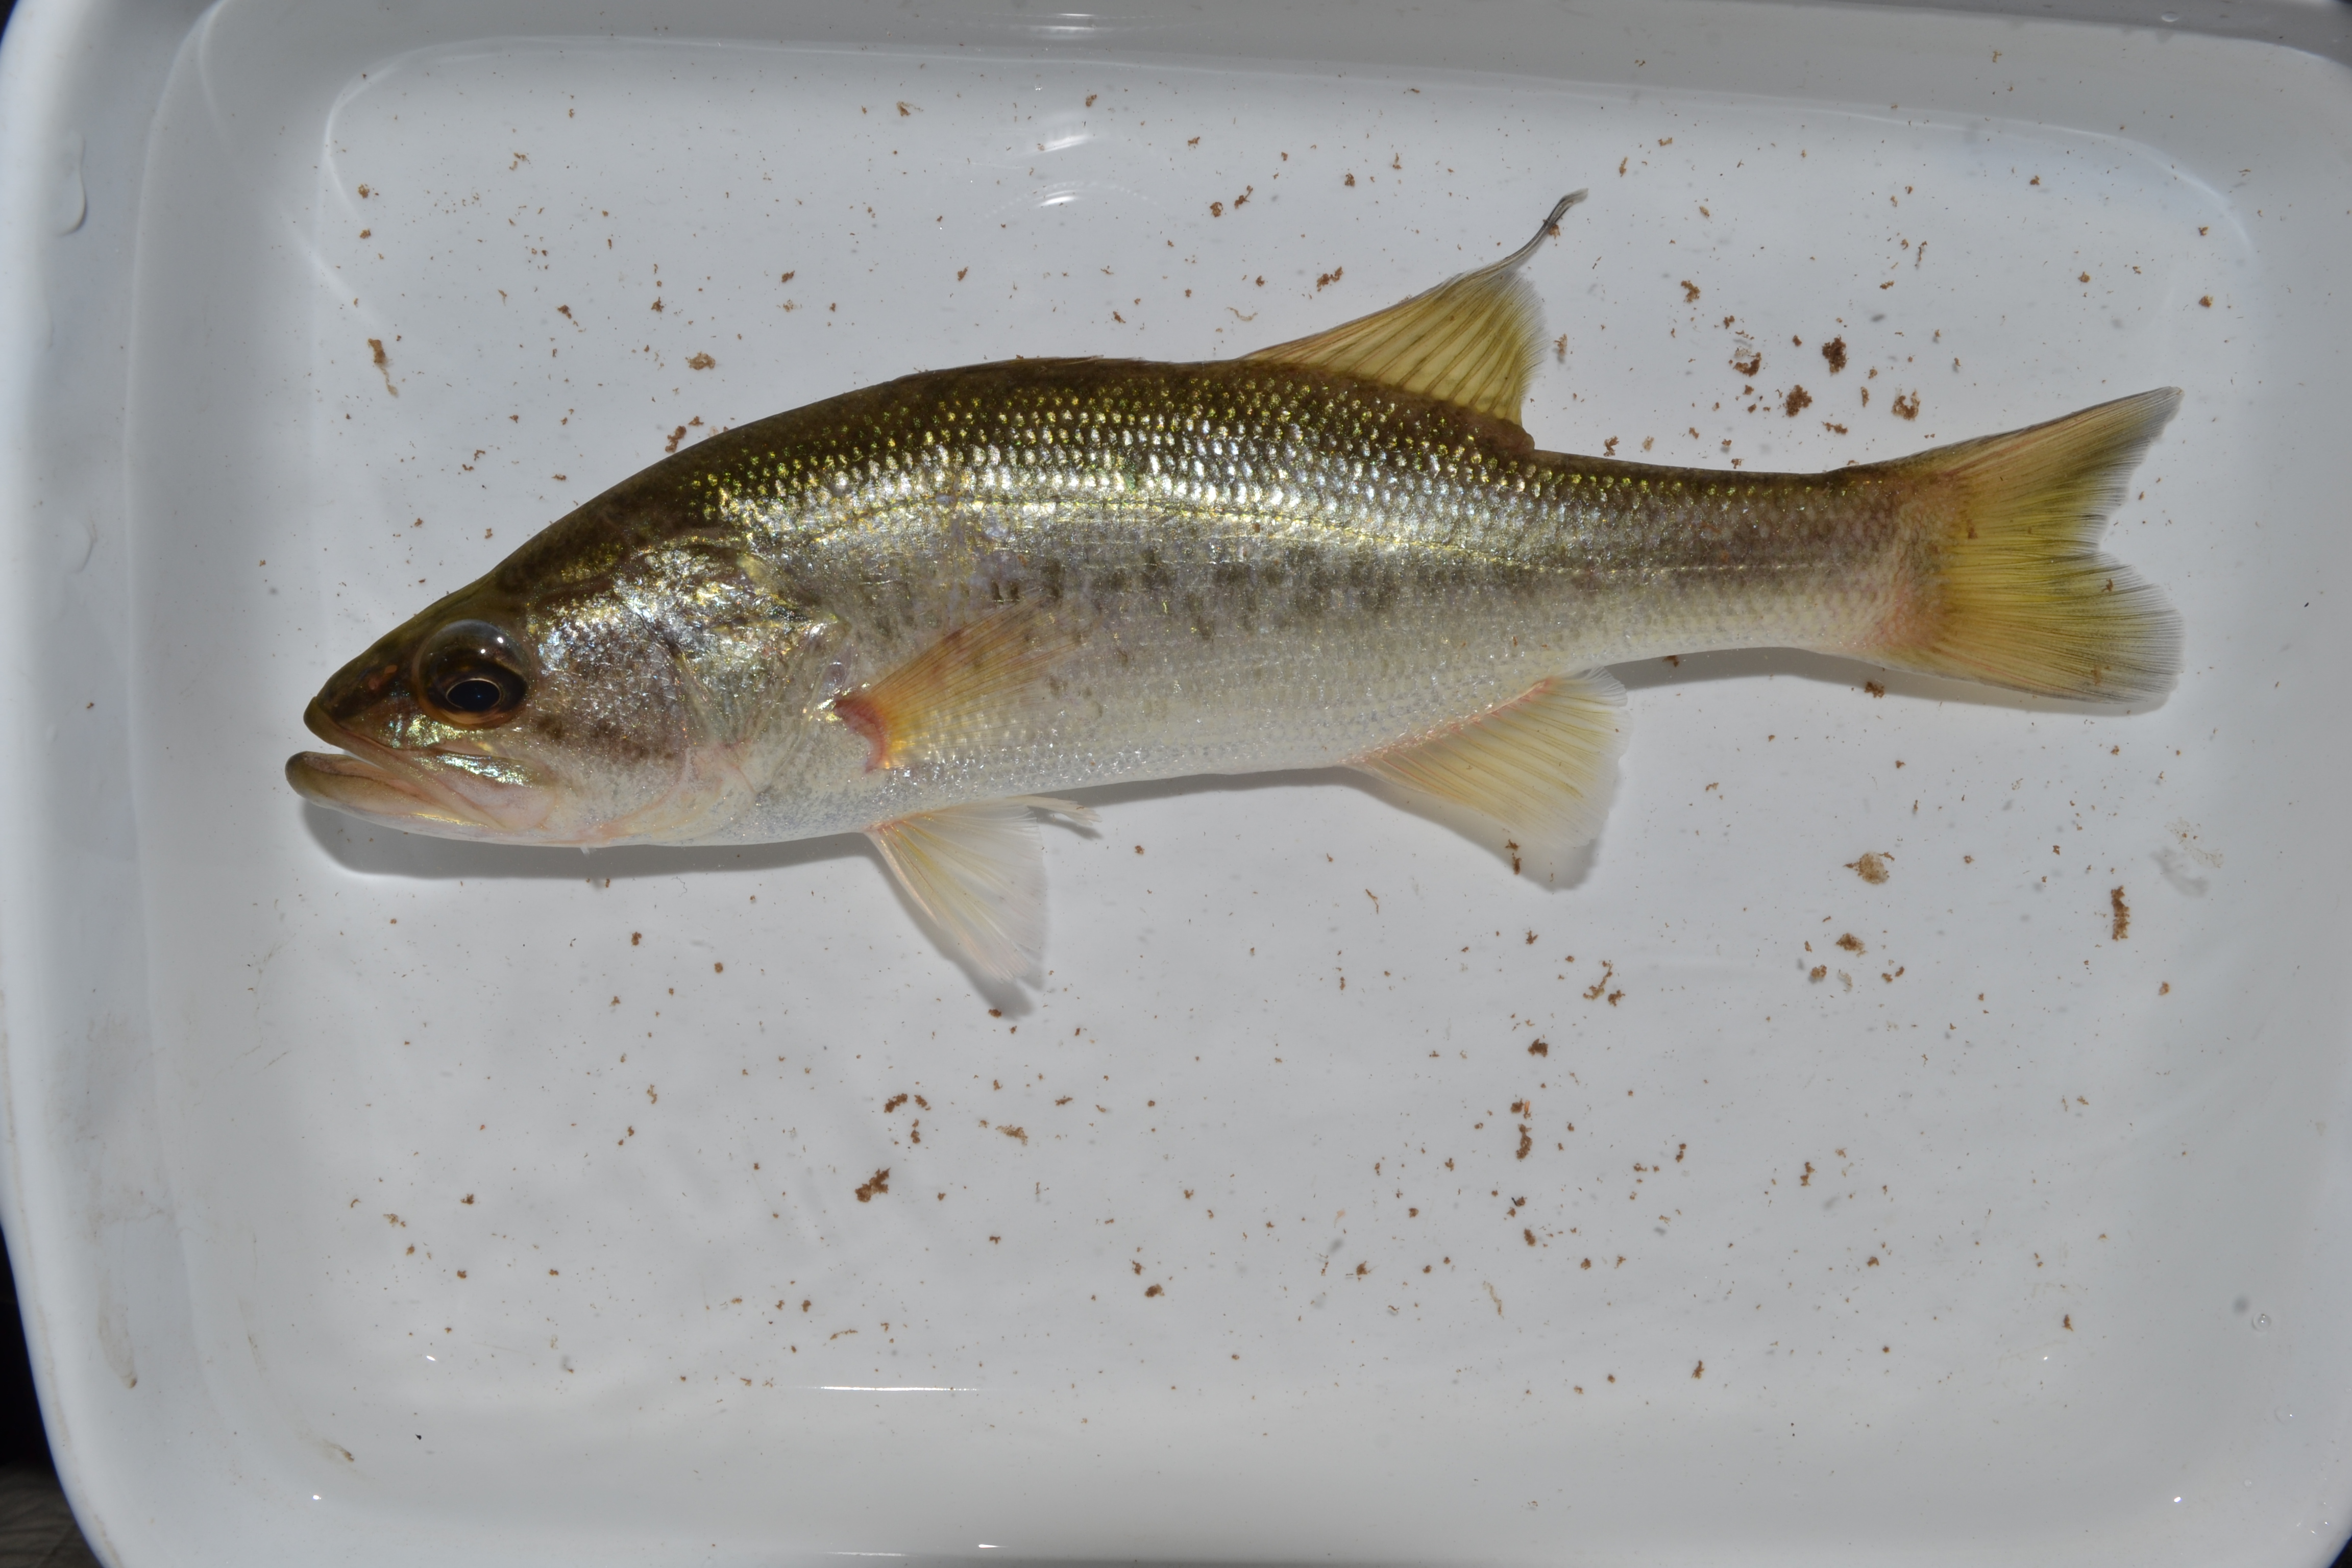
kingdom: Animalia
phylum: Chordata
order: Perciformes
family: Centrarchidae
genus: Micropterus
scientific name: Micropterus salmoides
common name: Largemouth bass
